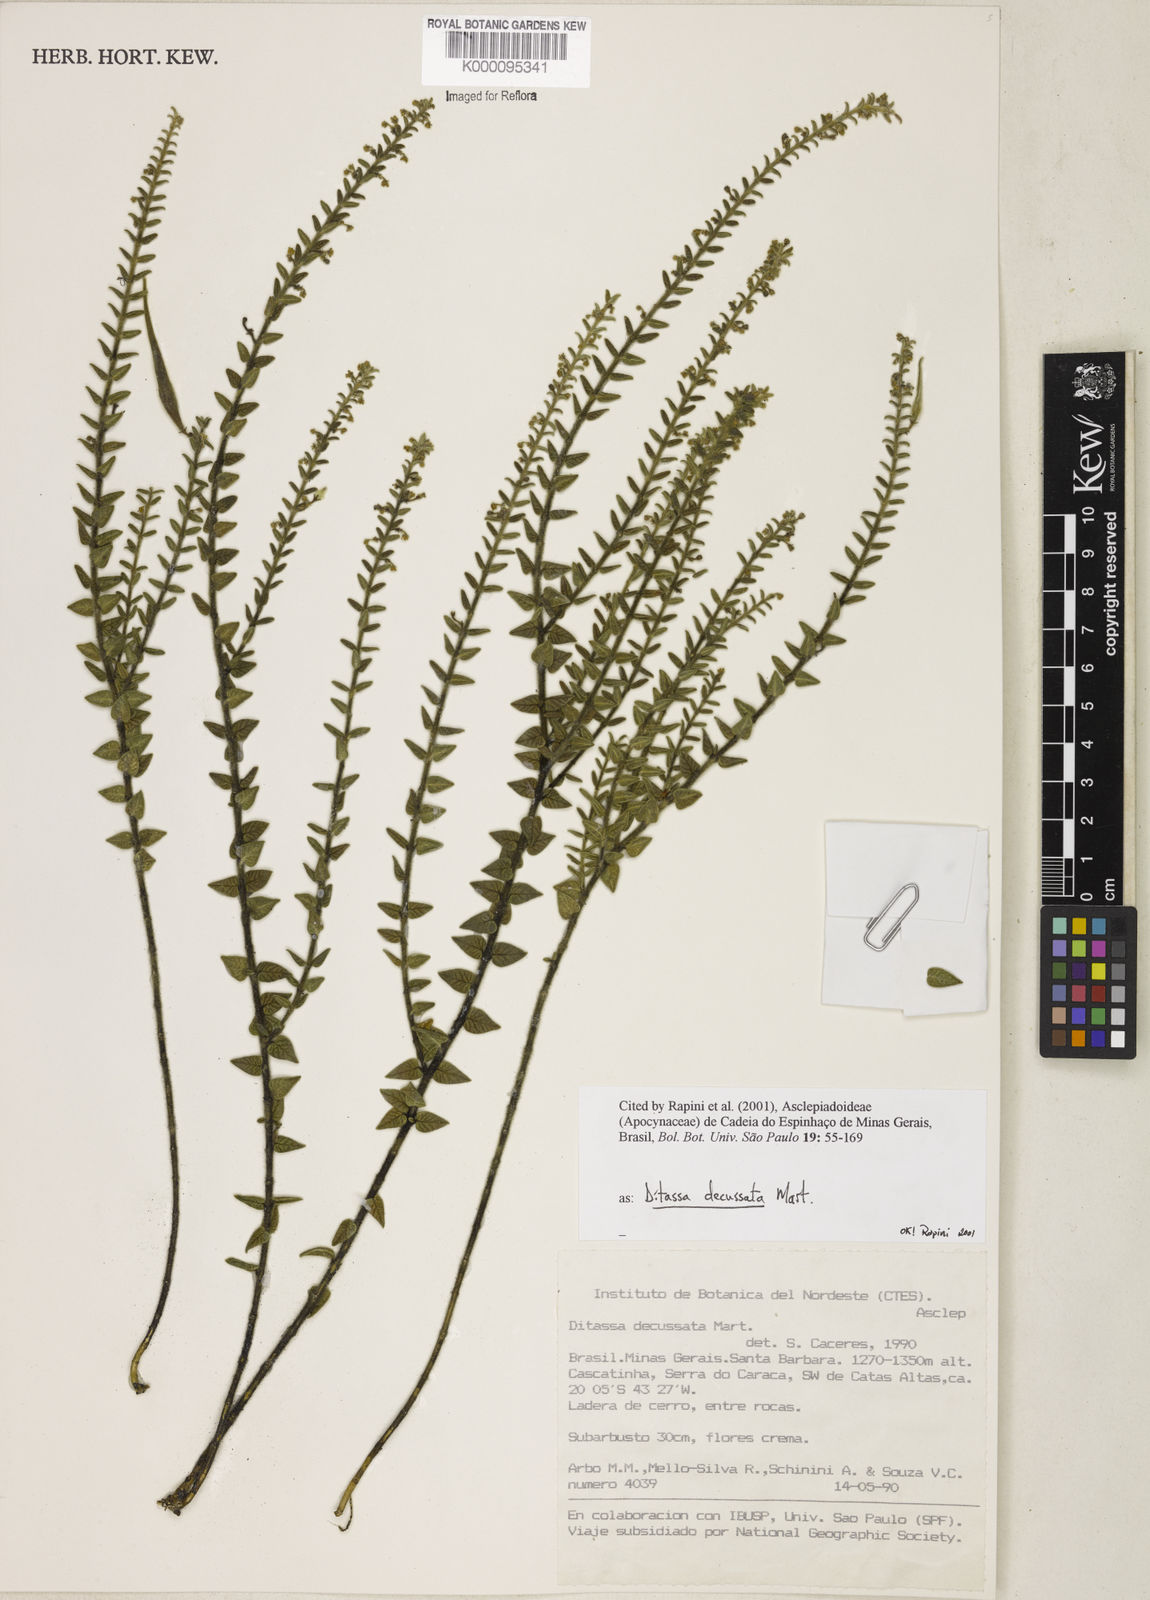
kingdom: Plantae
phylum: Tracheophyta
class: Magnoliopsida
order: Gentianales
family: Apocynaceae
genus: Minaria
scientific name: Minaria decussata
